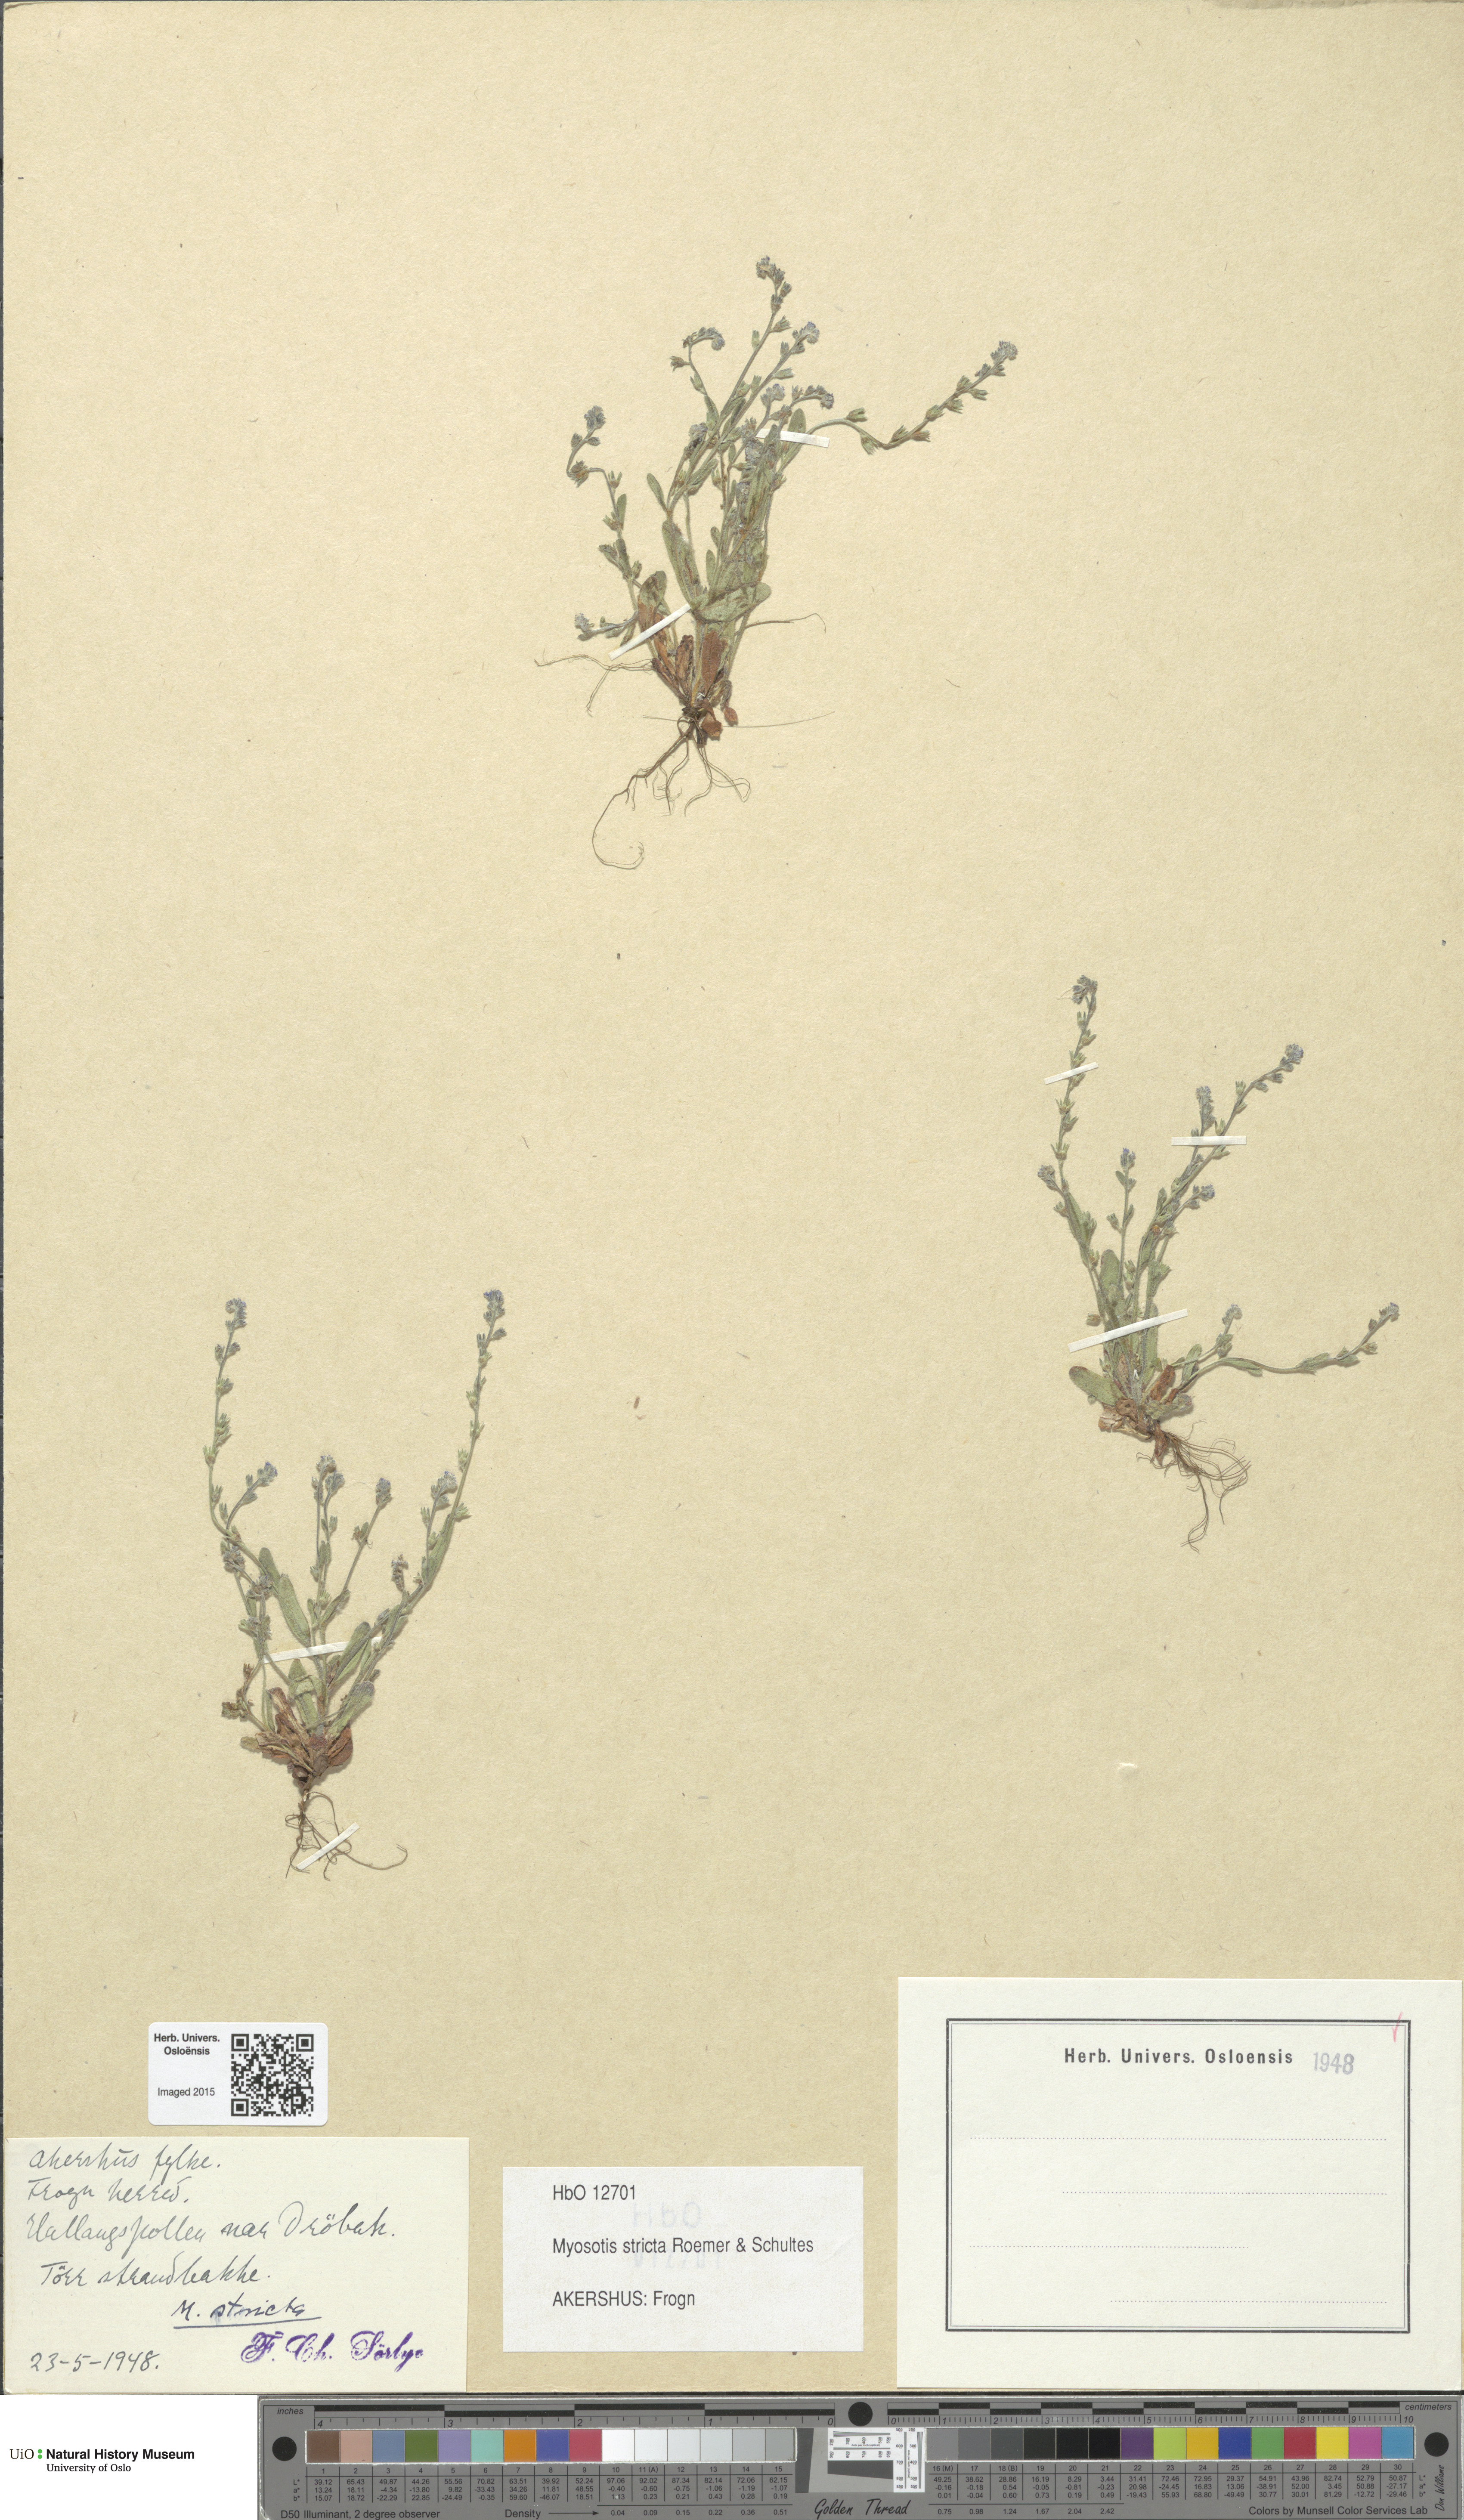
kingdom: Plantae
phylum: Tracheophyta
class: Magnoliopsida
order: Boraginales
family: Boraginaceae
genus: Myosotis
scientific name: Myosotis stricta
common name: Strict forget-me-not
